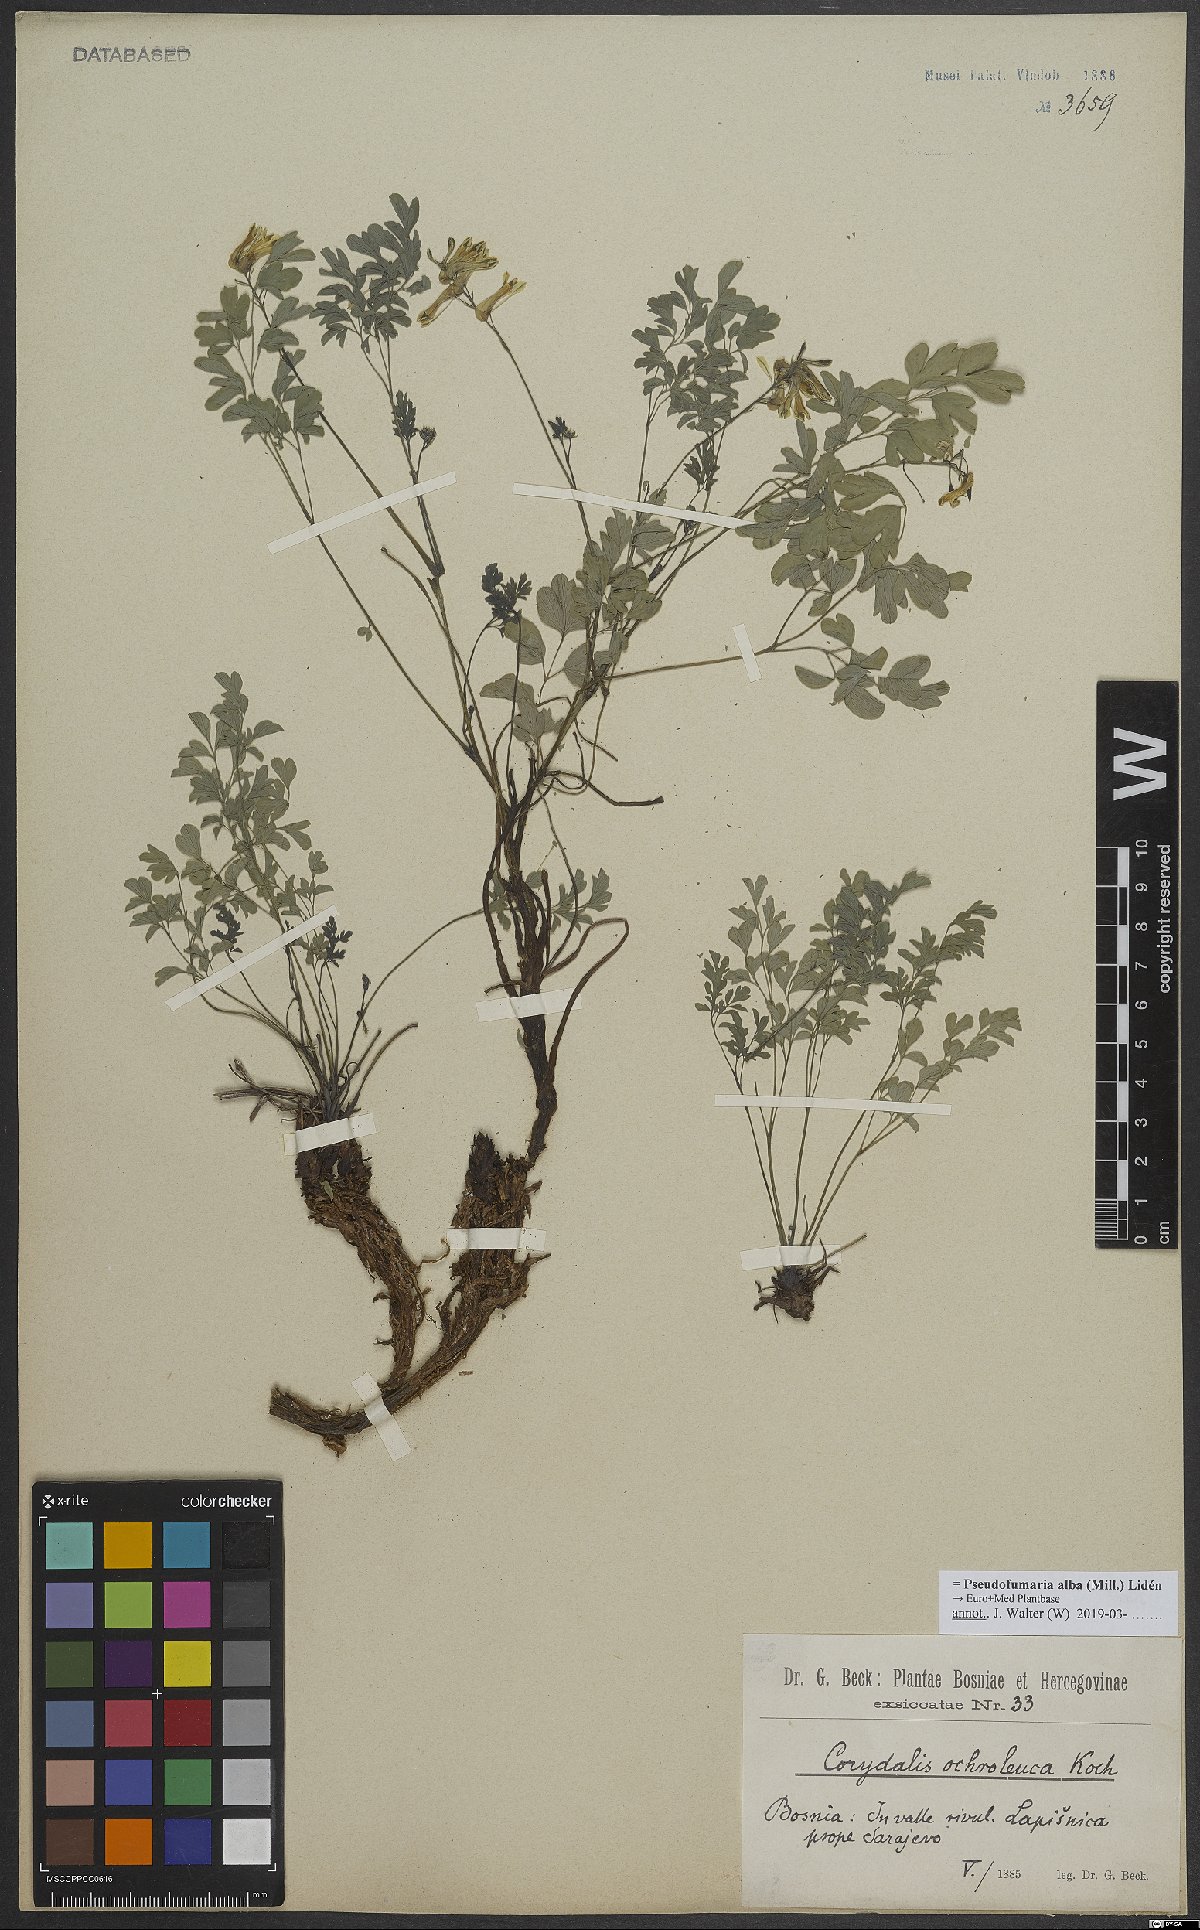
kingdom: Plantae
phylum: Tracheophyta
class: Magnoliopsida
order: Ranunculales
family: Papaveraceae
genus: Pseudofumaria
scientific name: Pseudofumaria alba
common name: Pale corydalis
